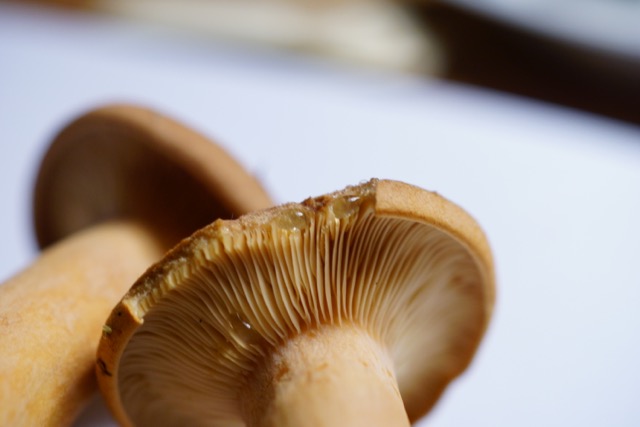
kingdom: Fungi
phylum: Basidiomycota
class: Agaricomycetes
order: Russulales
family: Russulaceae
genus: Lactarius
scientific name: Lactarius helvus
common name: mose-mælkehat
